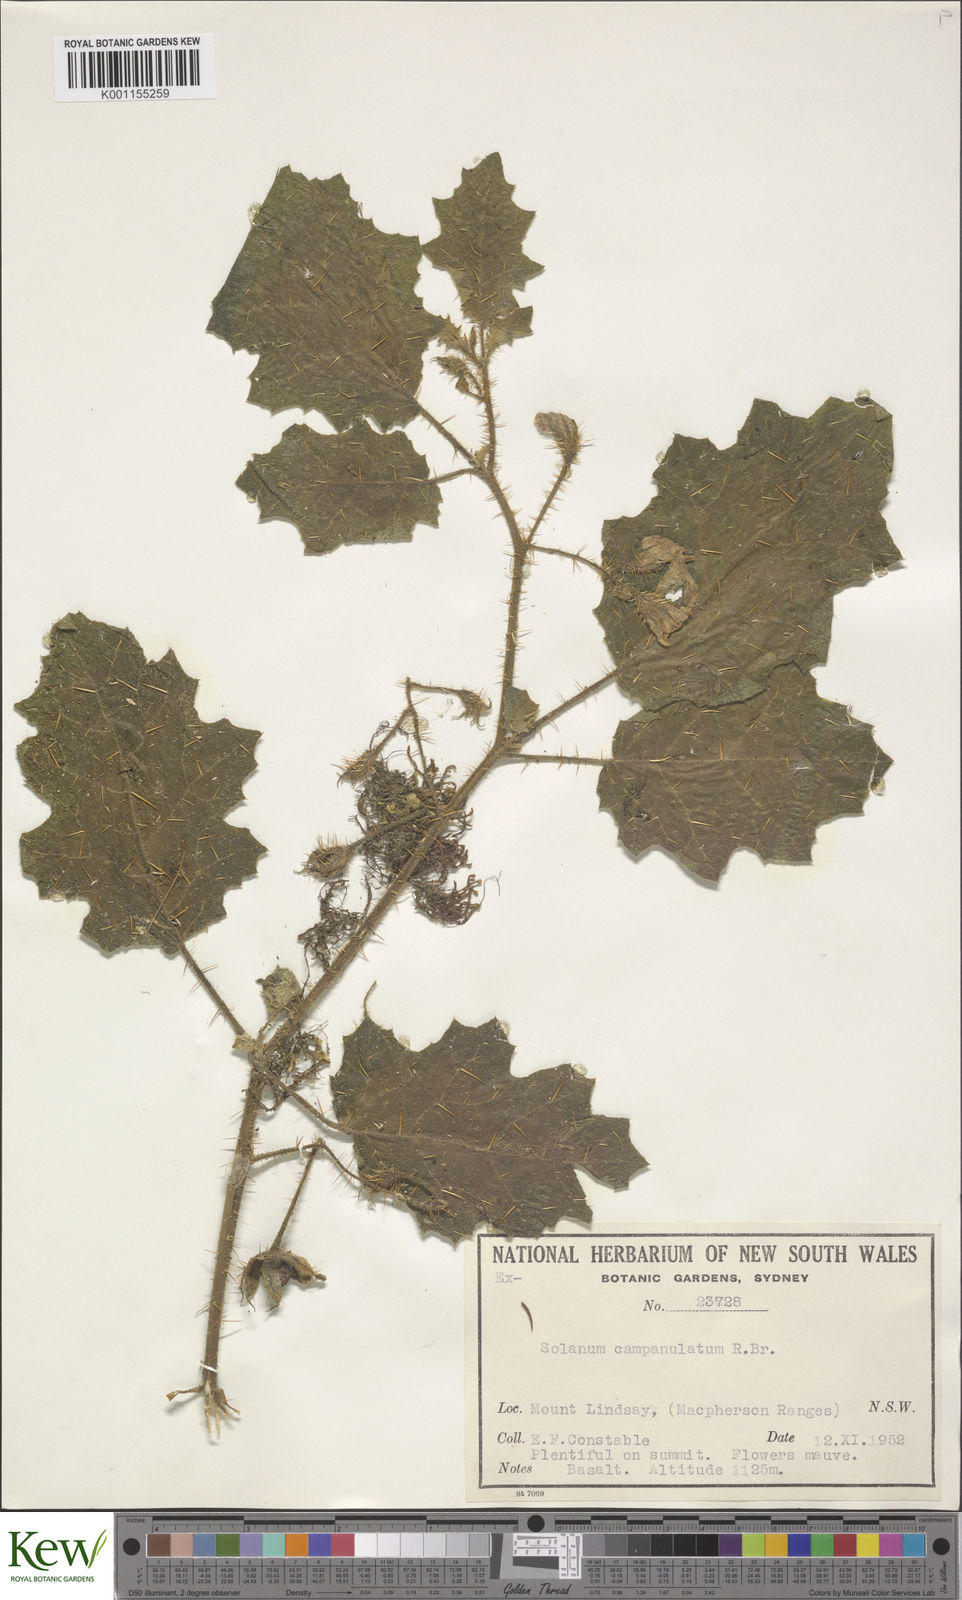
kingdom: Plantae
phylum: Tracheophyta
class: Magnoliopsida
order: Solanales
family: Solanaceae
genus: Solanum
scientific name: Solanum
